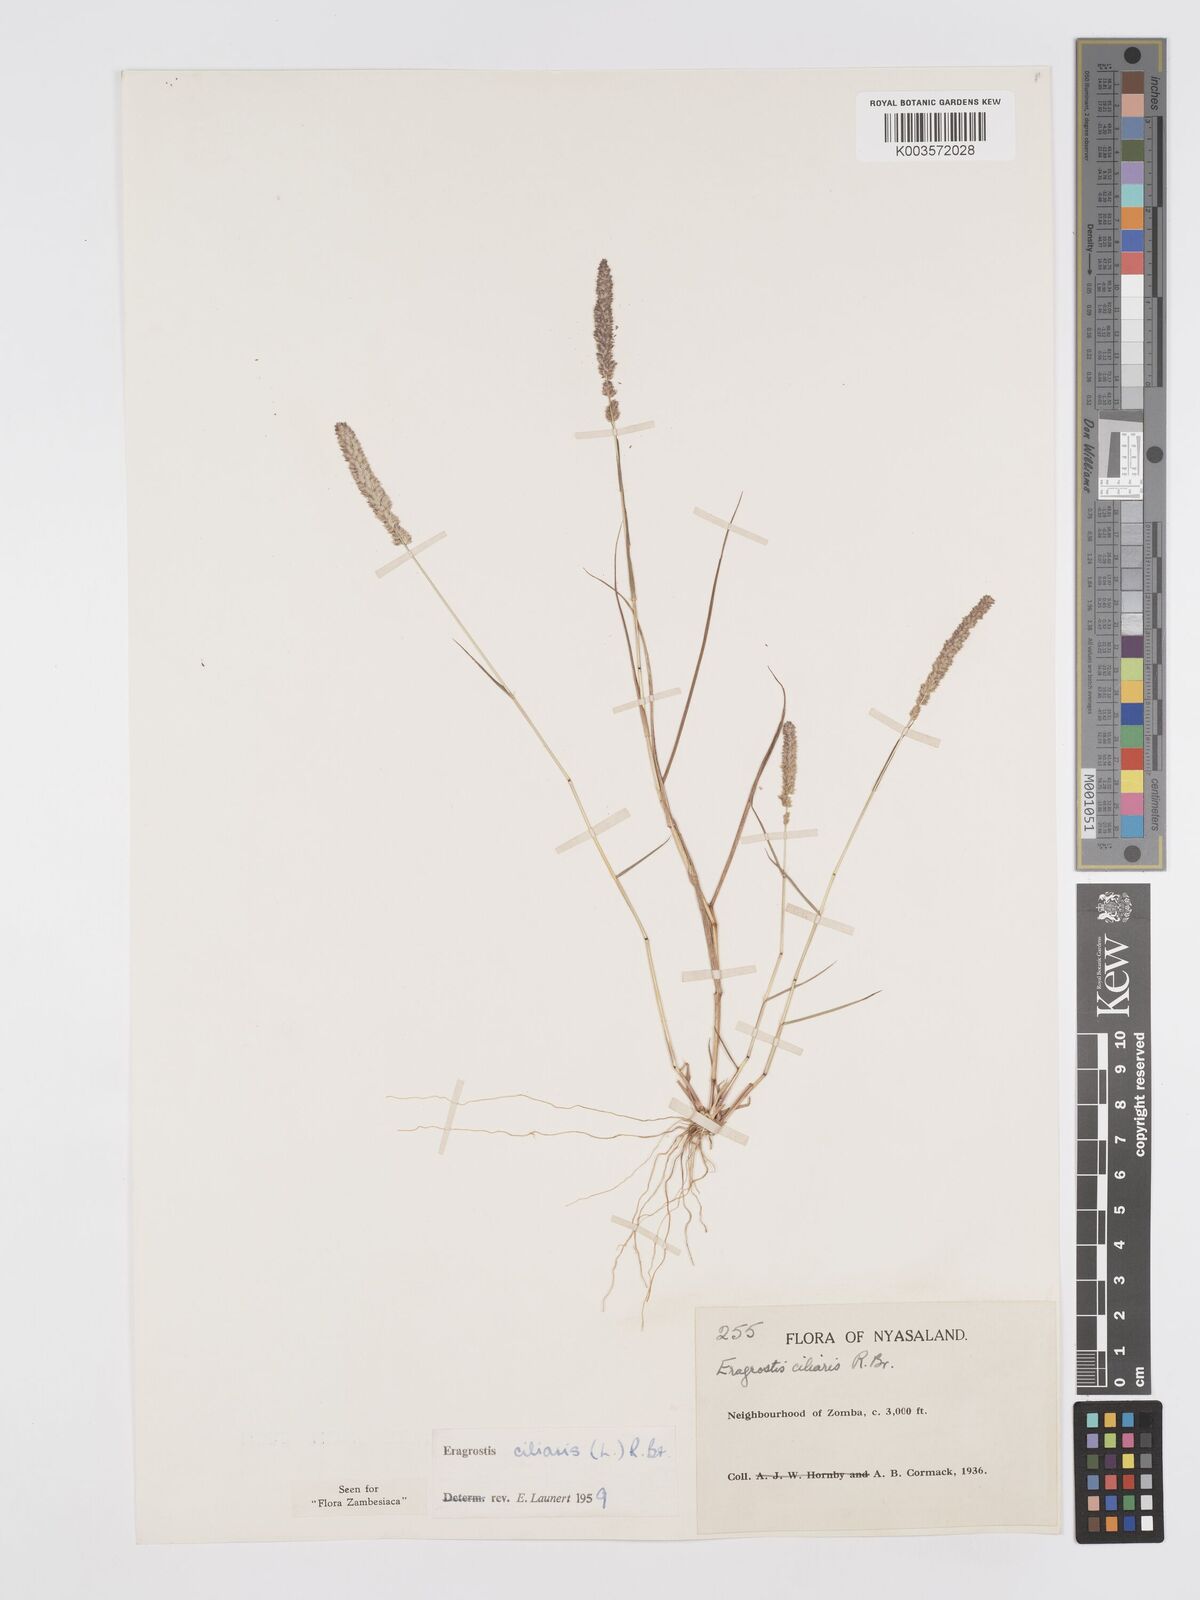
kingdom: Plantae
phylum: Tracheophyta
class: Liliopsida
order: Poales
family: Poaceae
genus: Eragrostis
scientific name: Eragrostis ciliaris
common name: Gophertail lovegrass
